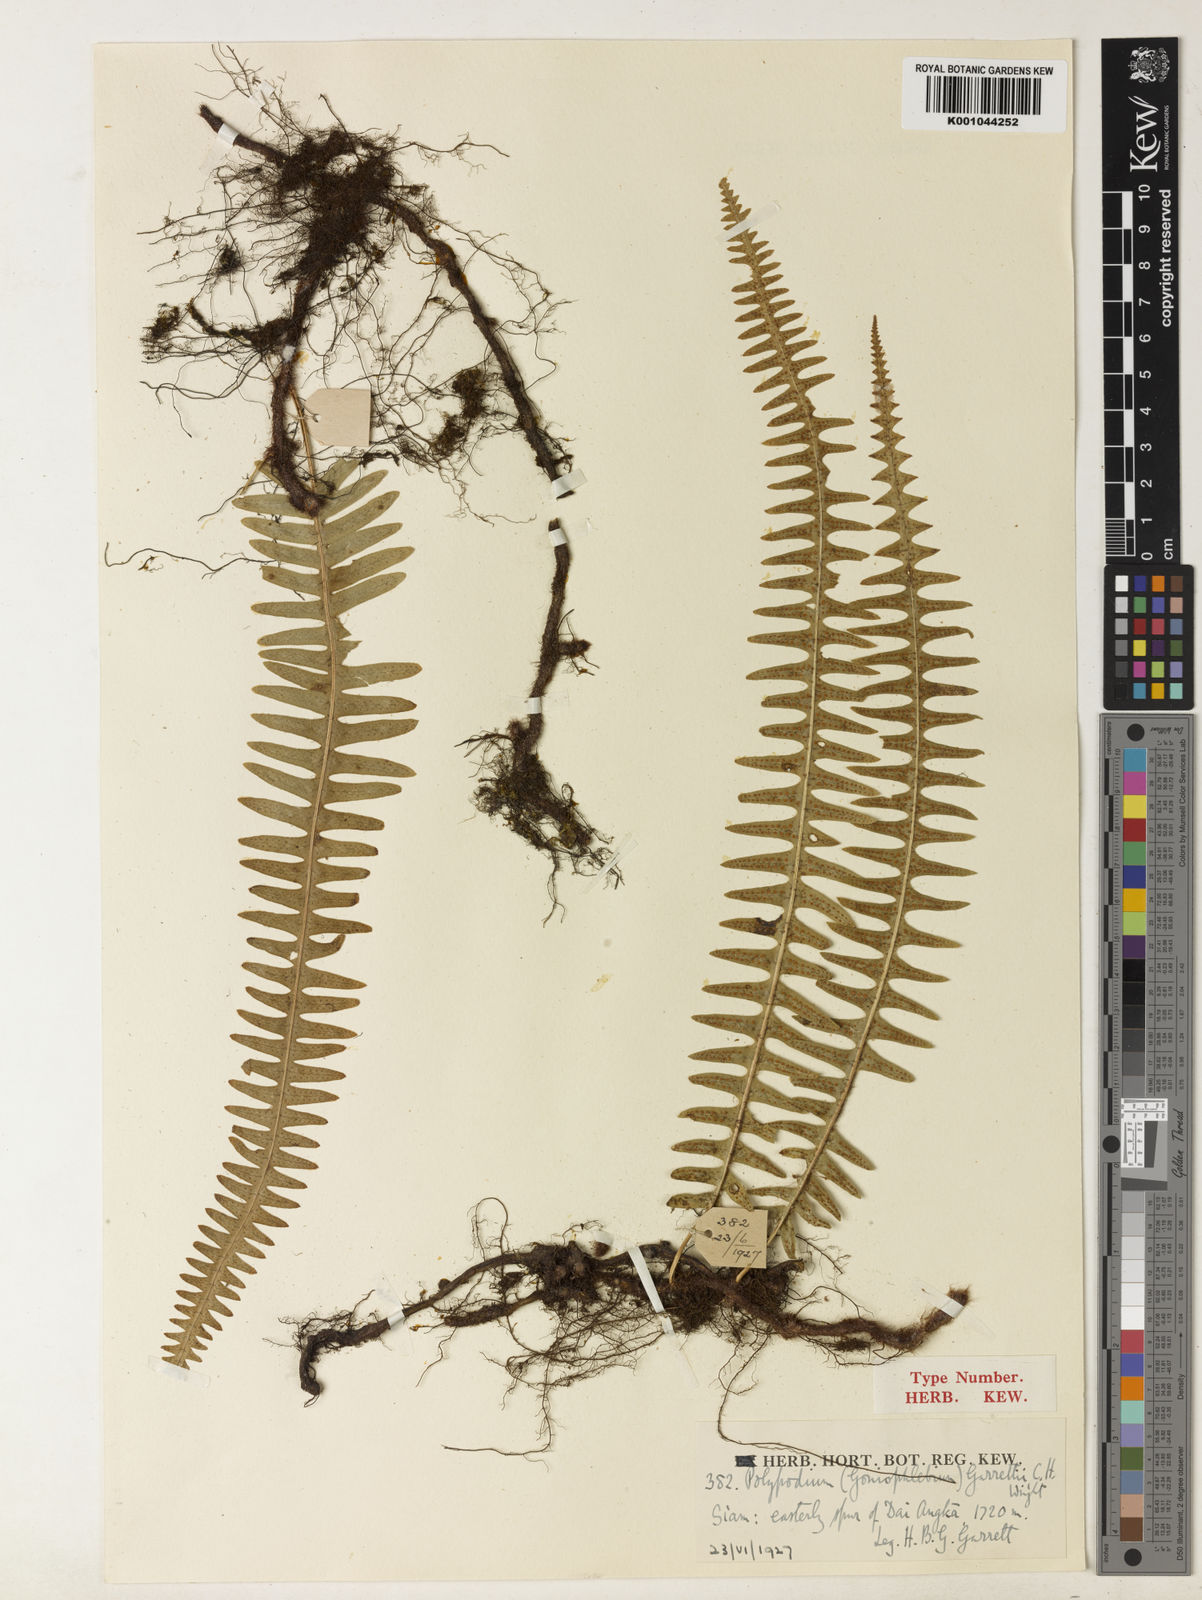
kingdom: Plantae
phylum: Tracheophyta
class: Polypodiopsida
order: Polypodiales
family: Polypodiaceae
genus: Goniophlebium
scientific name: Goniophlebium lachnopus
